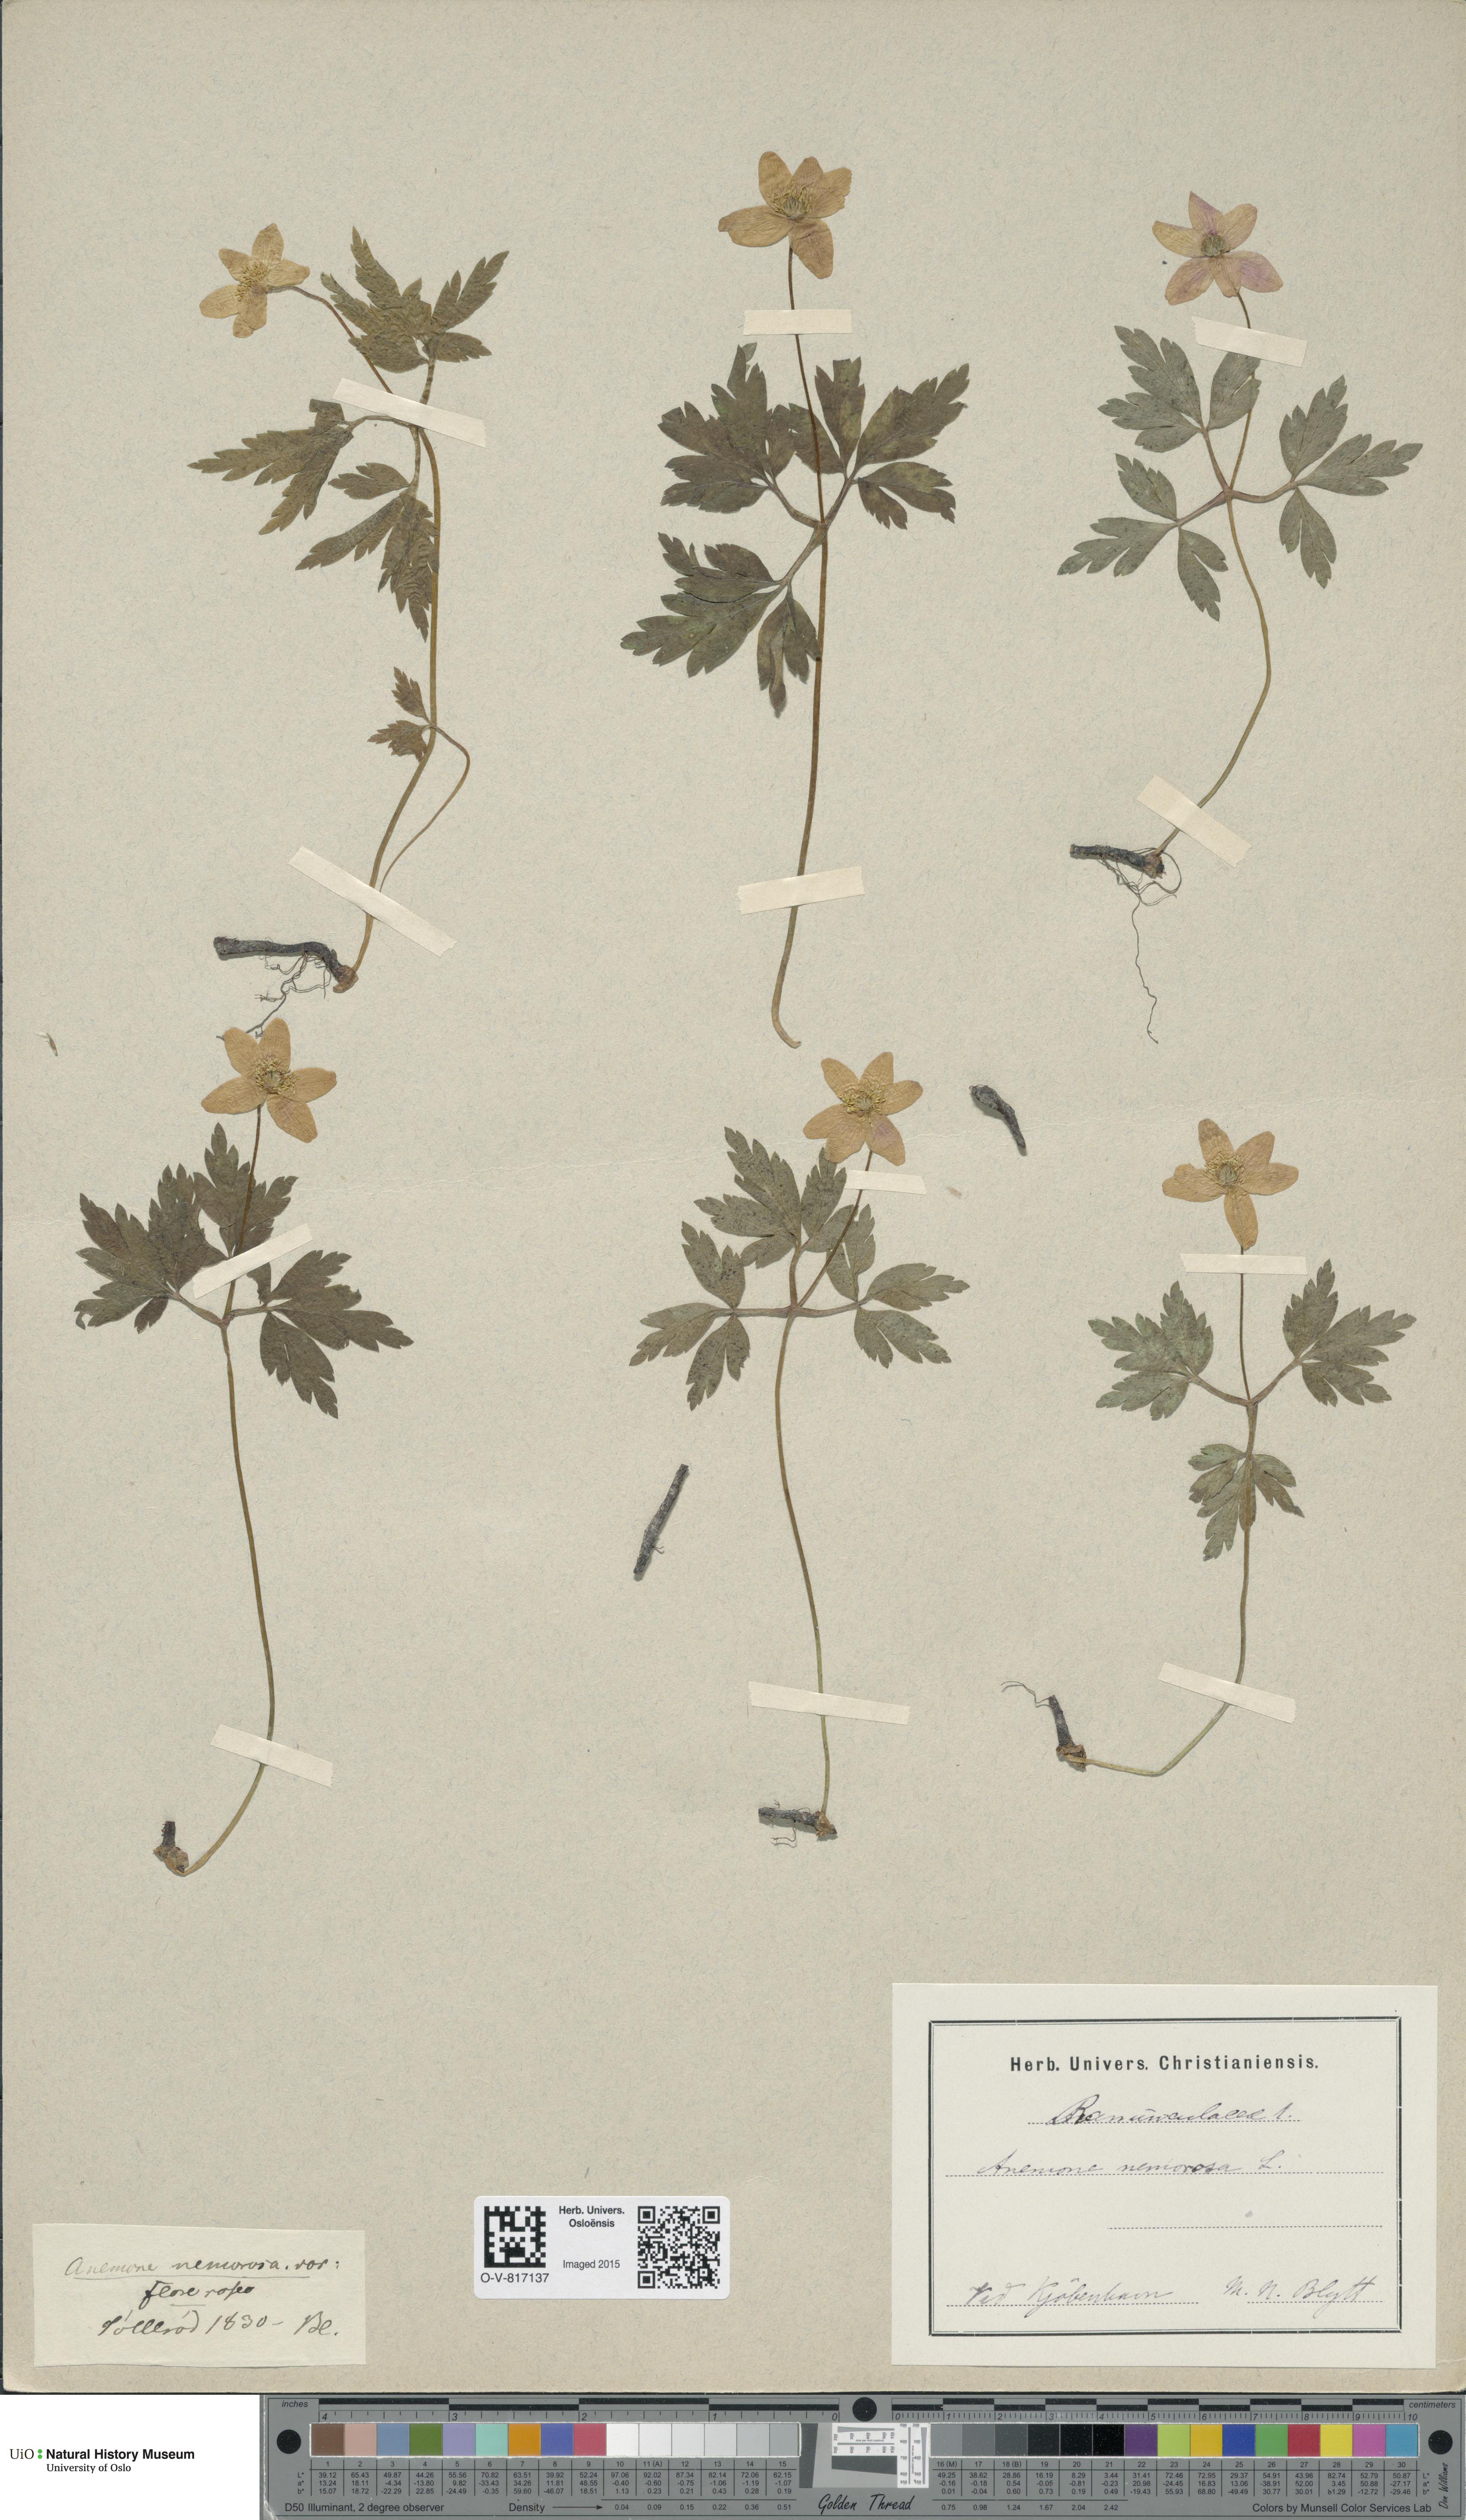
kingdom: Plantae
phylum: Tracheophyta
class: Magnoliopsida
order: Ranunculales
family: Ranunculaceae
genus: Anemone
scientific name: Anemone nemorosa
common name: Wood anemone
